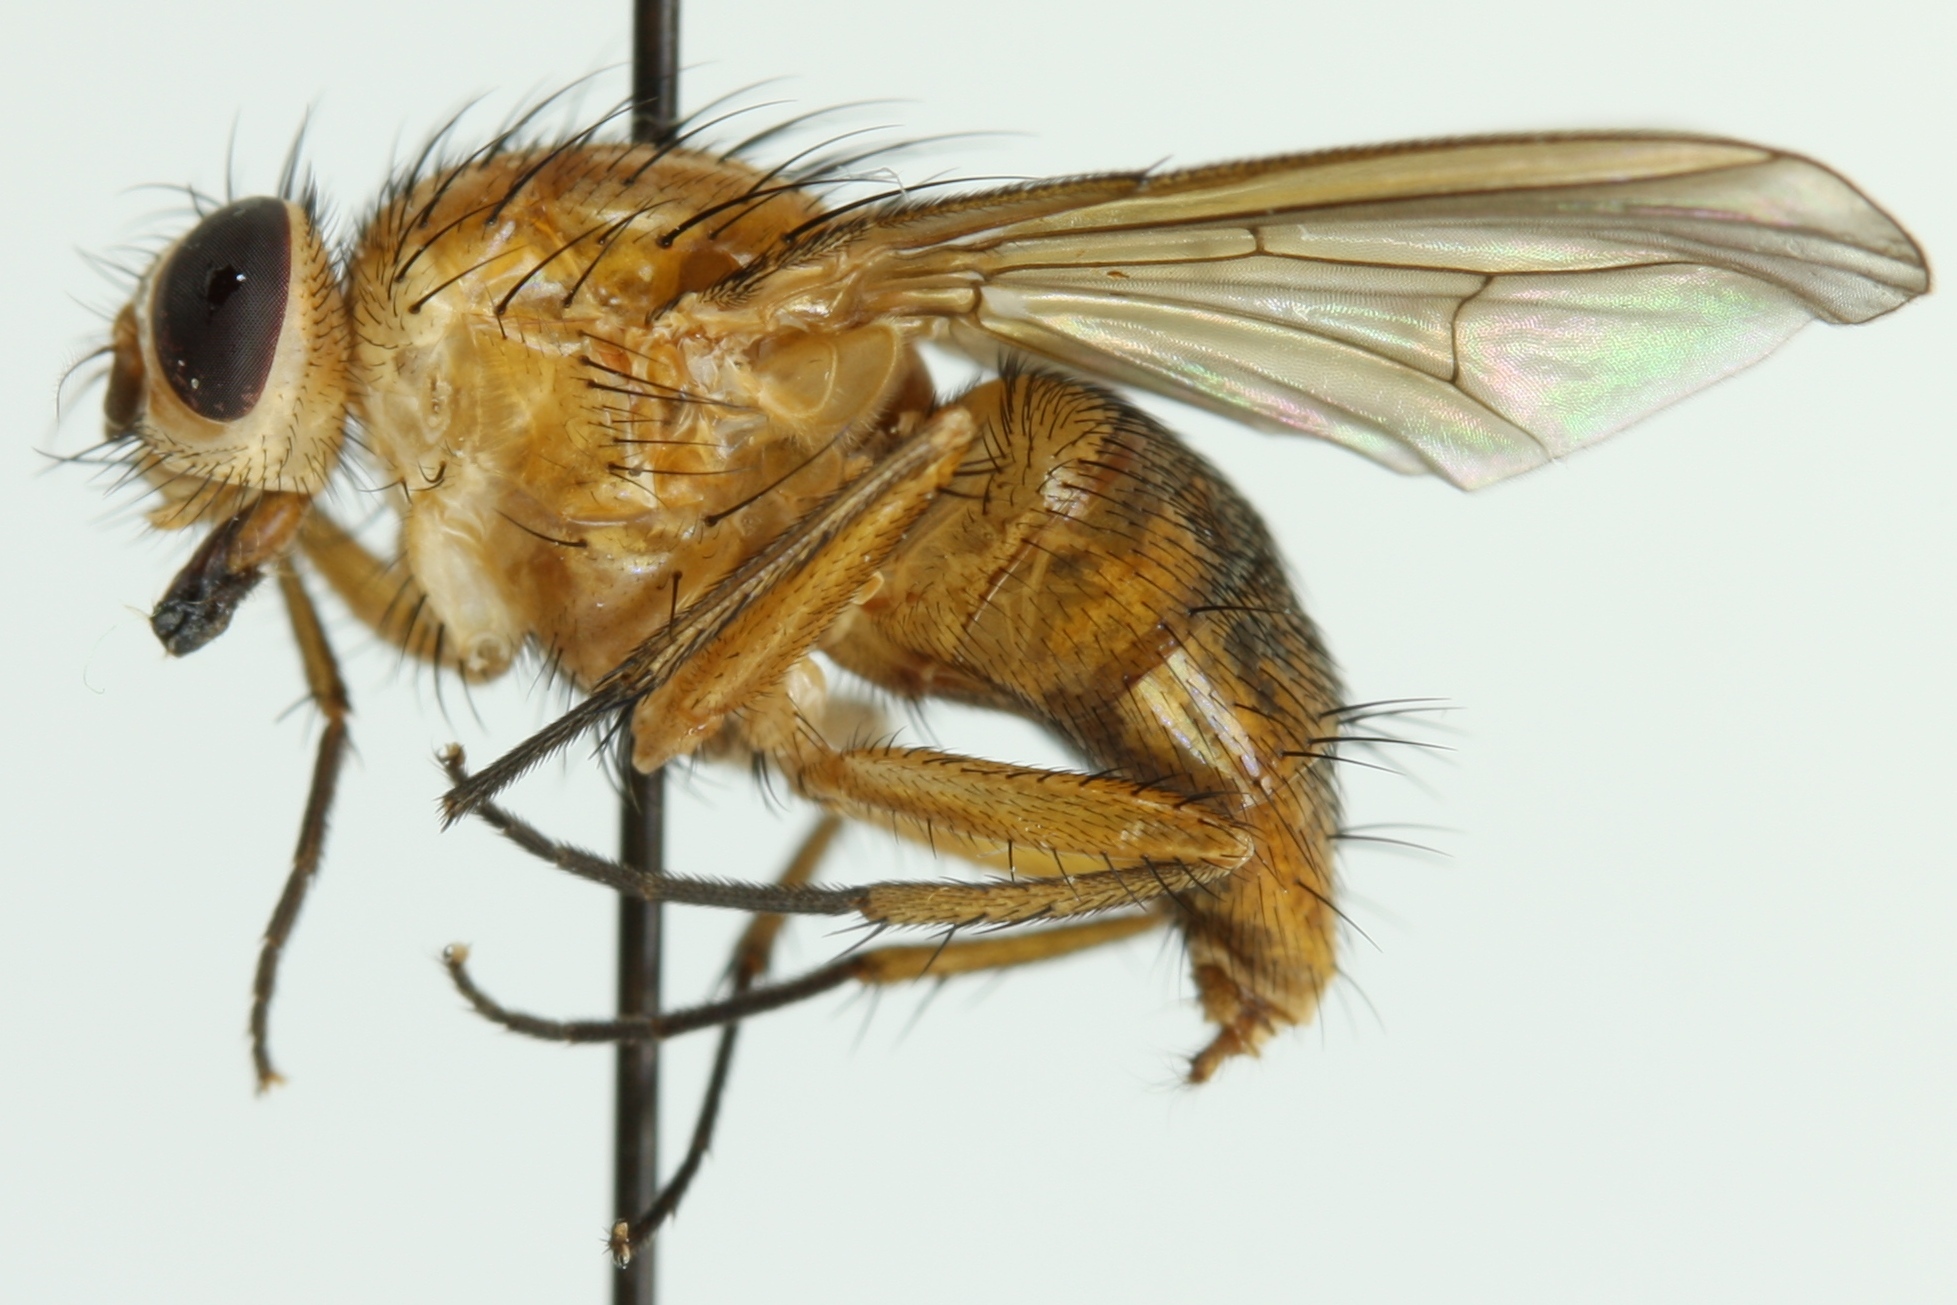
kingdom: Animalia
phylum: Arthropoda
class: Insecta
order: Diptera
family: Muscidae
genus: Phaonia
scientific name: Phaonia pallida
